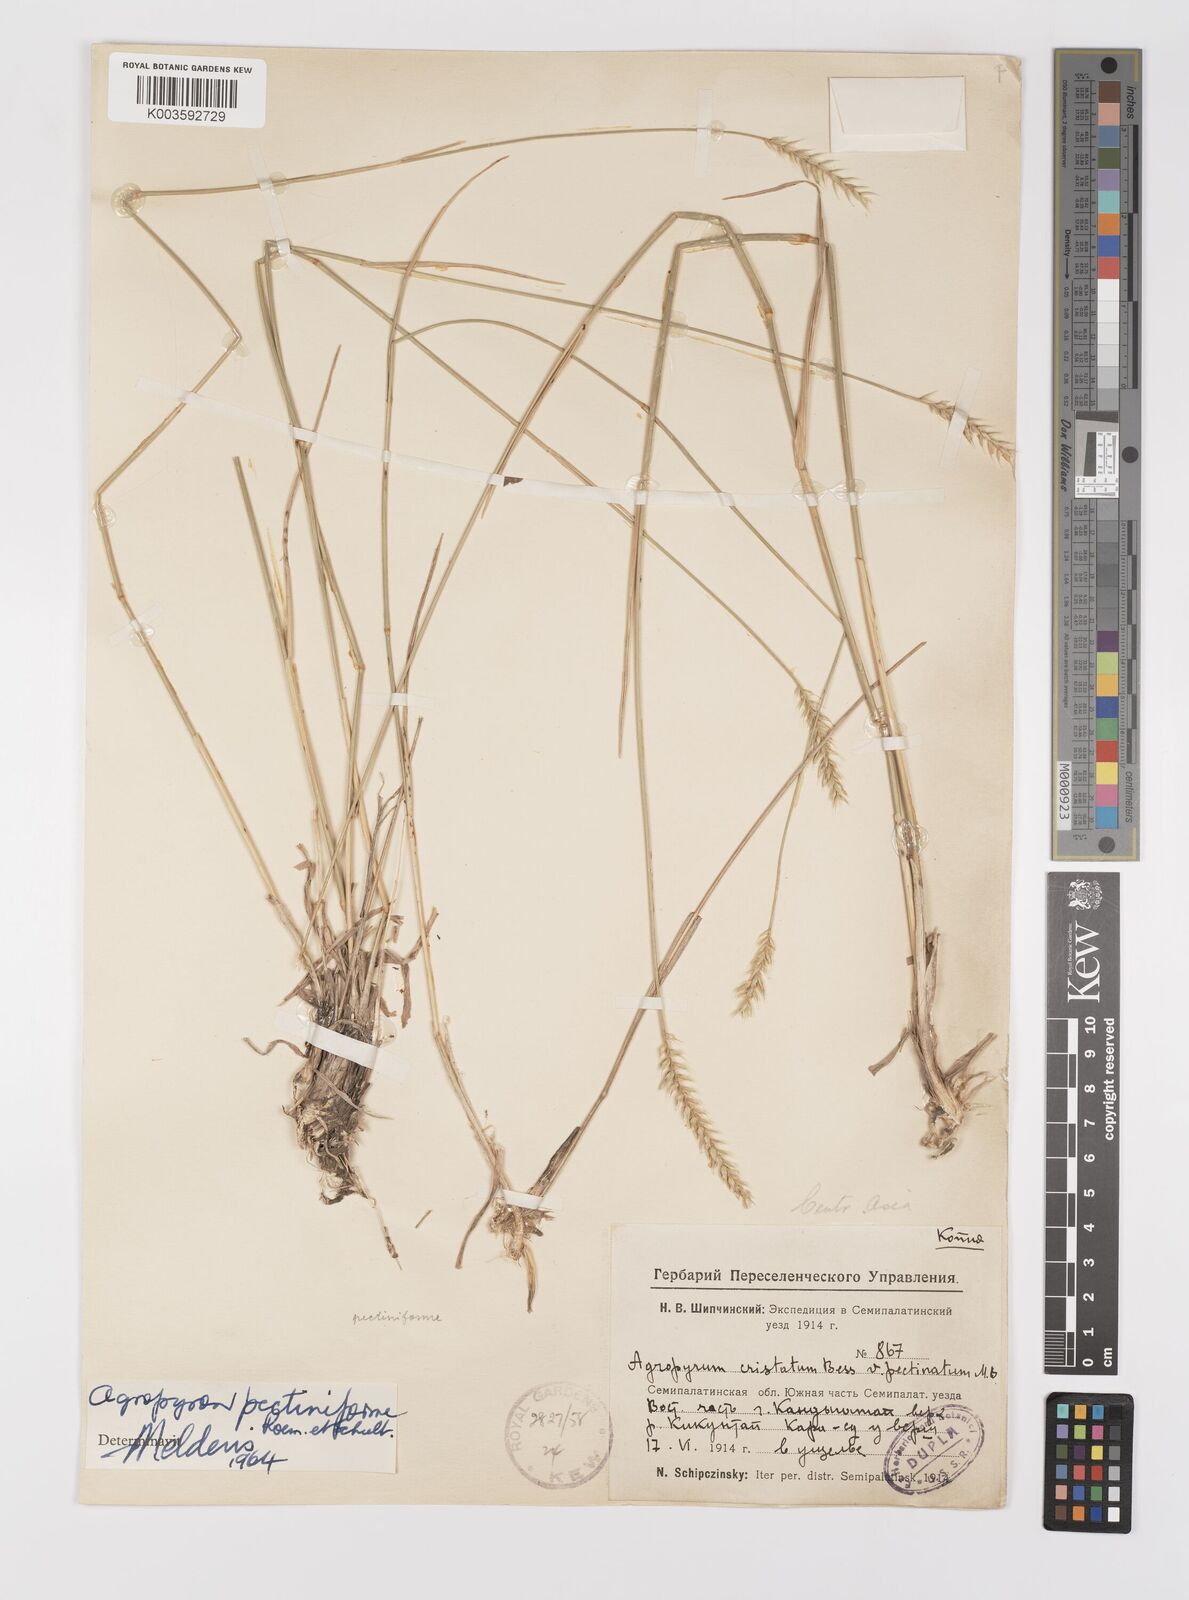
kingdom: Plantae
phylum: Tracheophyta
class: Liliopsida
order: Poales
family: Poaceae
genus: Agropyron
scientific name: Agropyron cristatum
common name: Crested wheatgrass
